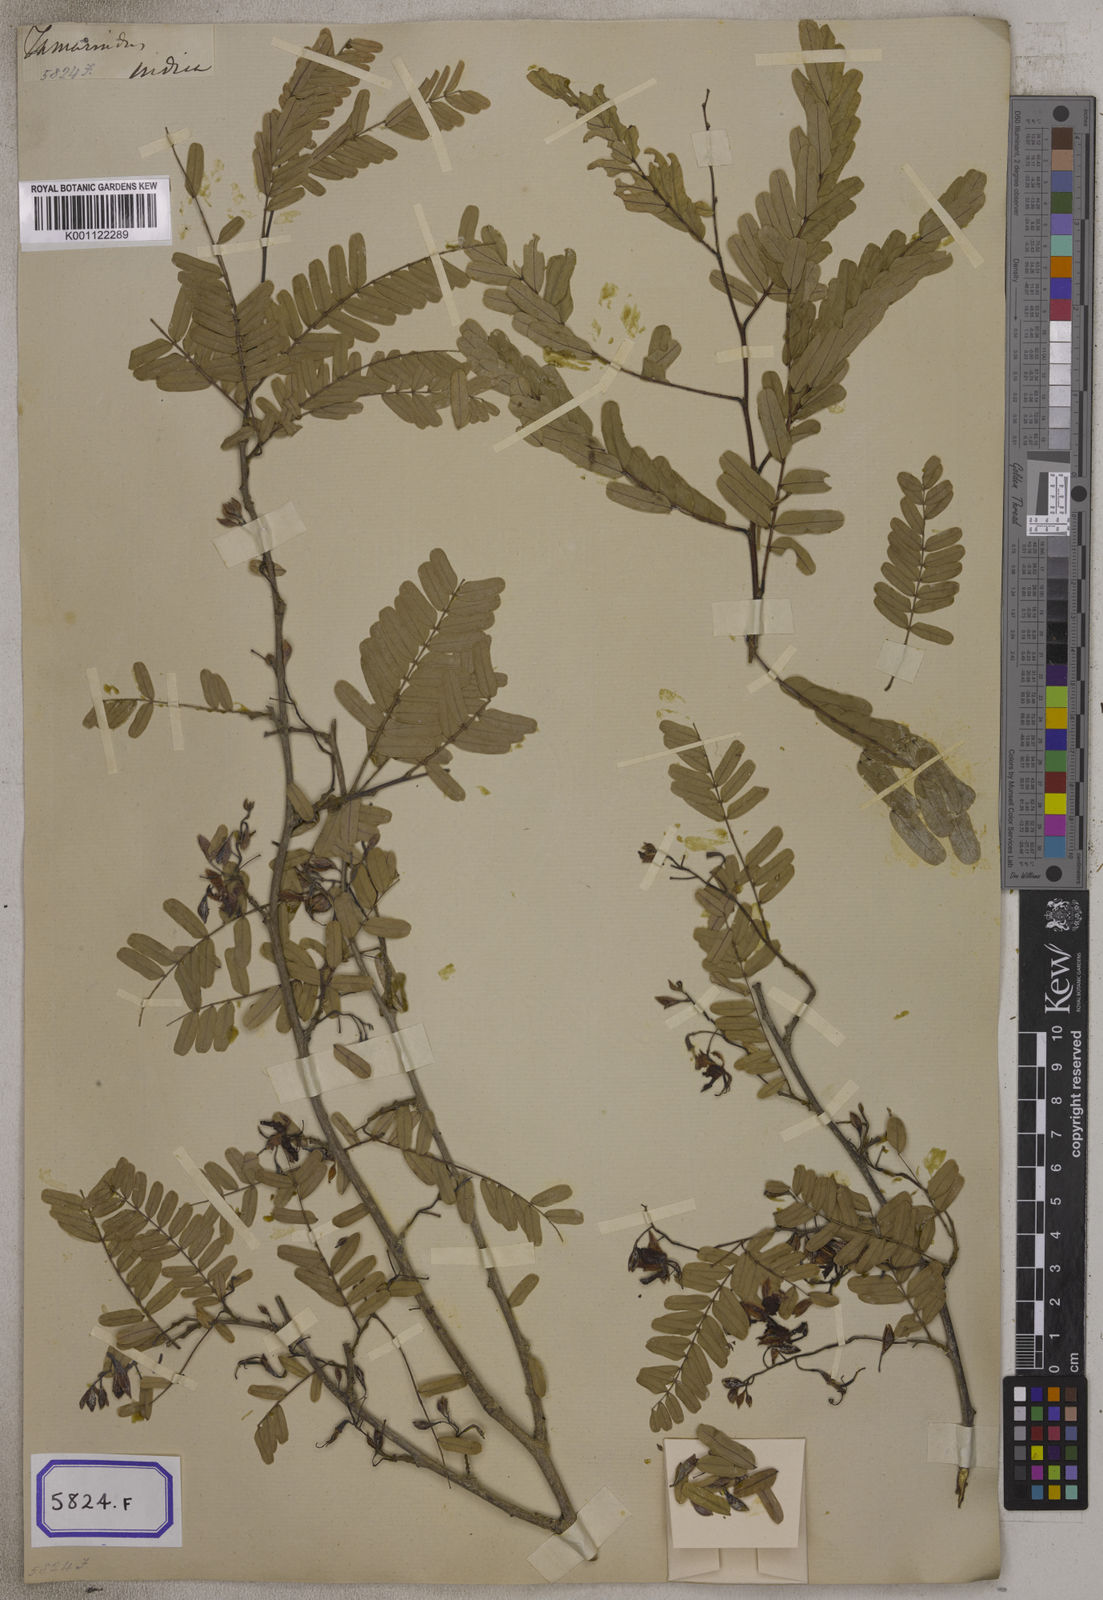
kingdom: Plantae
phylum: Tracheophyta
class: Magnoliopsida
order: Fabales
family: Fabaceae
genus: Tamarindus
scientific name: Tamarindus indica
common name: Tamarind
